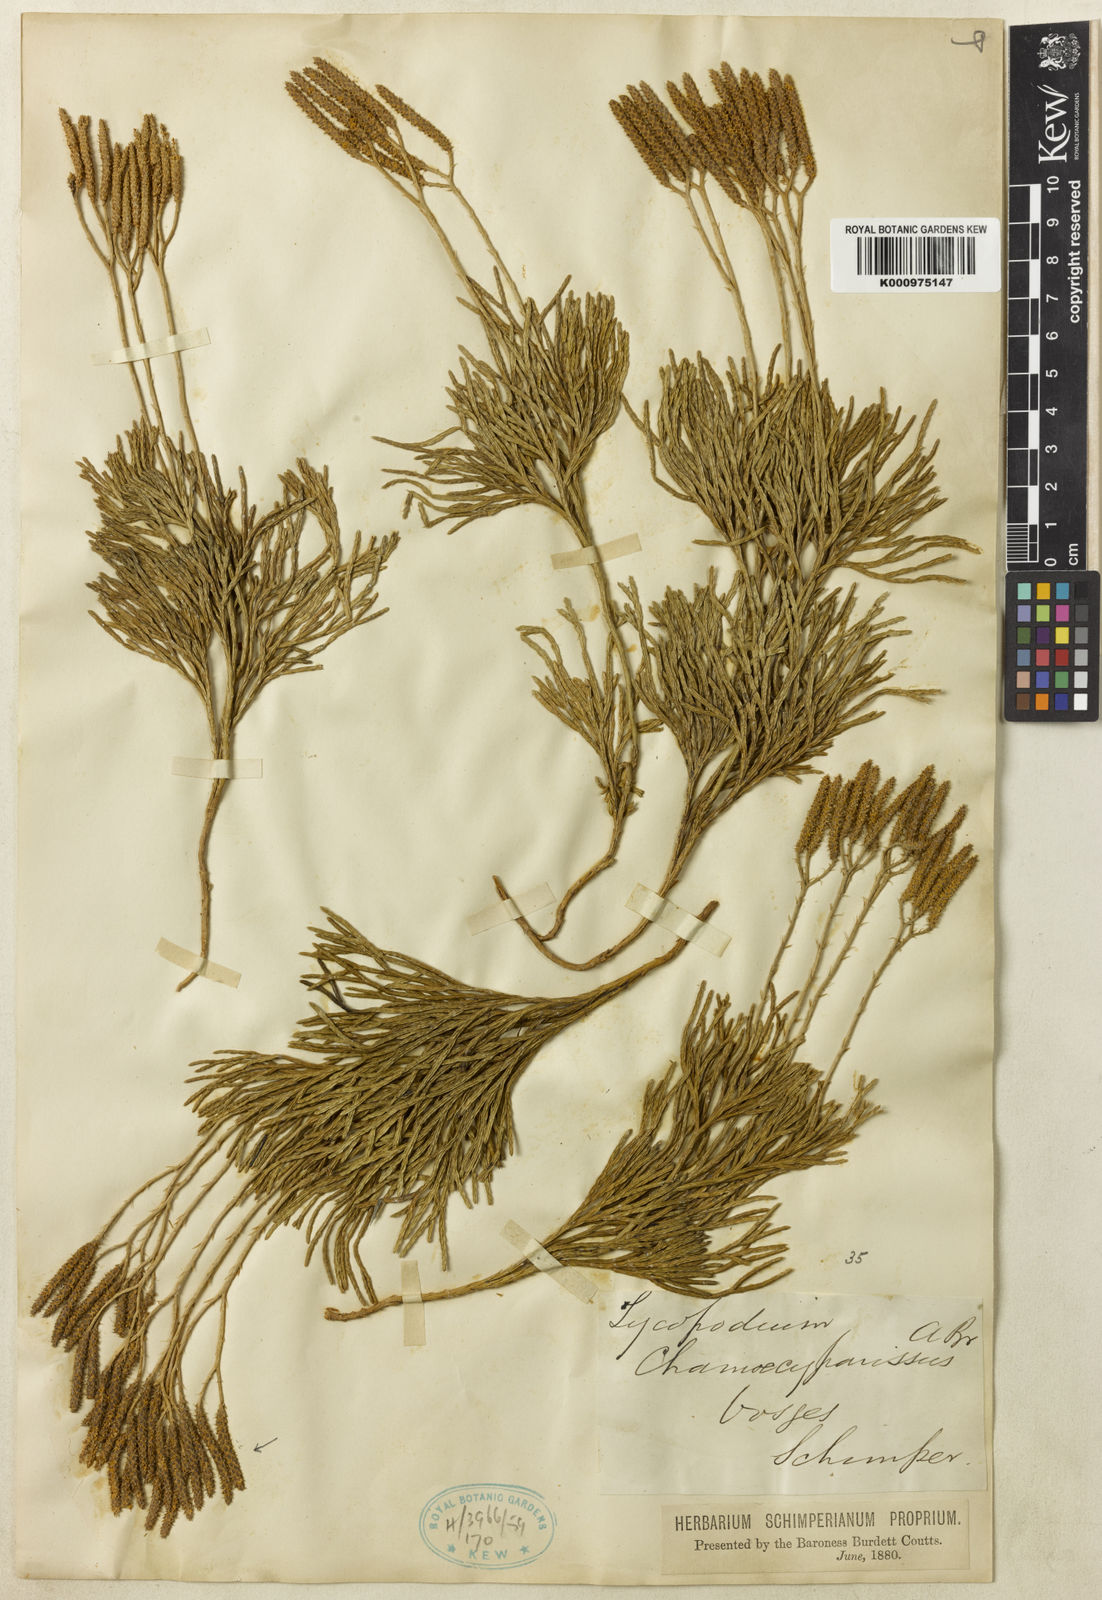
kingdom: Plantae
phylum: Tracheophyta
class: Lycopodiopsida
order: Lycopodiales
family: Lycopodiaceae
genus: Diphasiastrum
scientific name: Diphasiastrum tristachyum
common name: Blue ground-cedar
